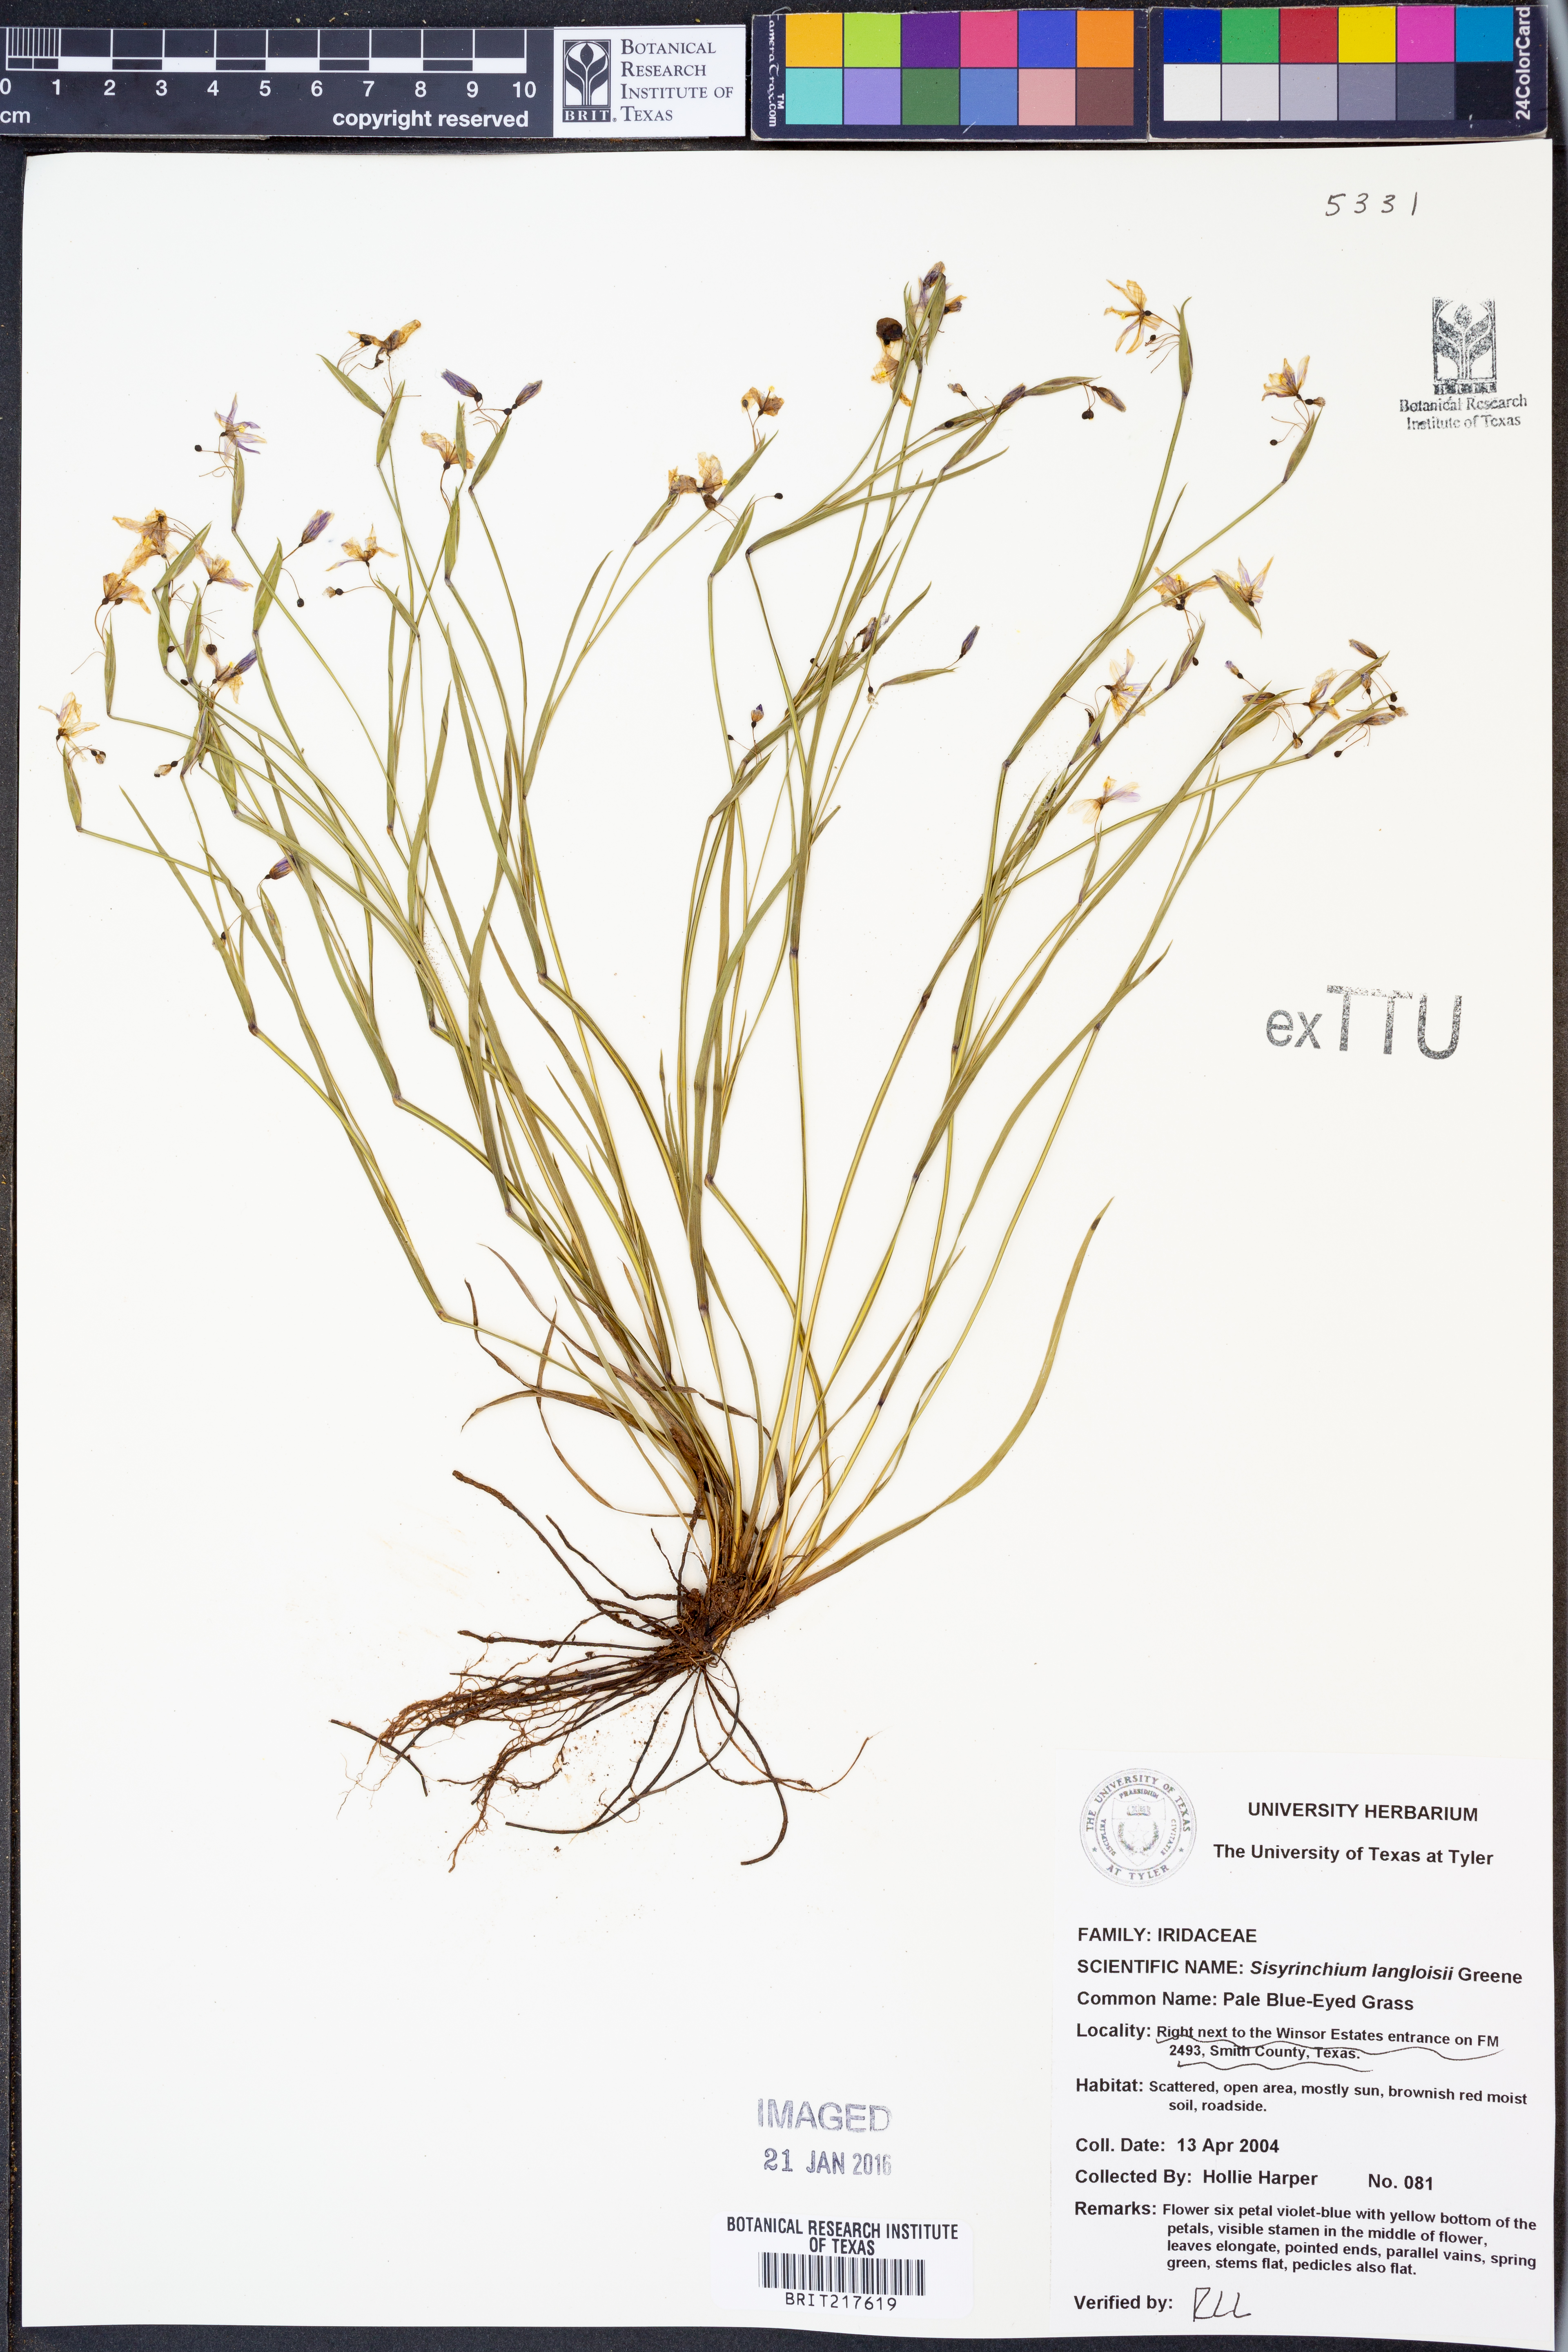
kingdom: Plantae
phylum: Tracheophyta
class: Liliopsida
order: Asparagales
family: Iridaceae
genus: Sisyrinchium
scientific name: Sisyrinchium langloisii
